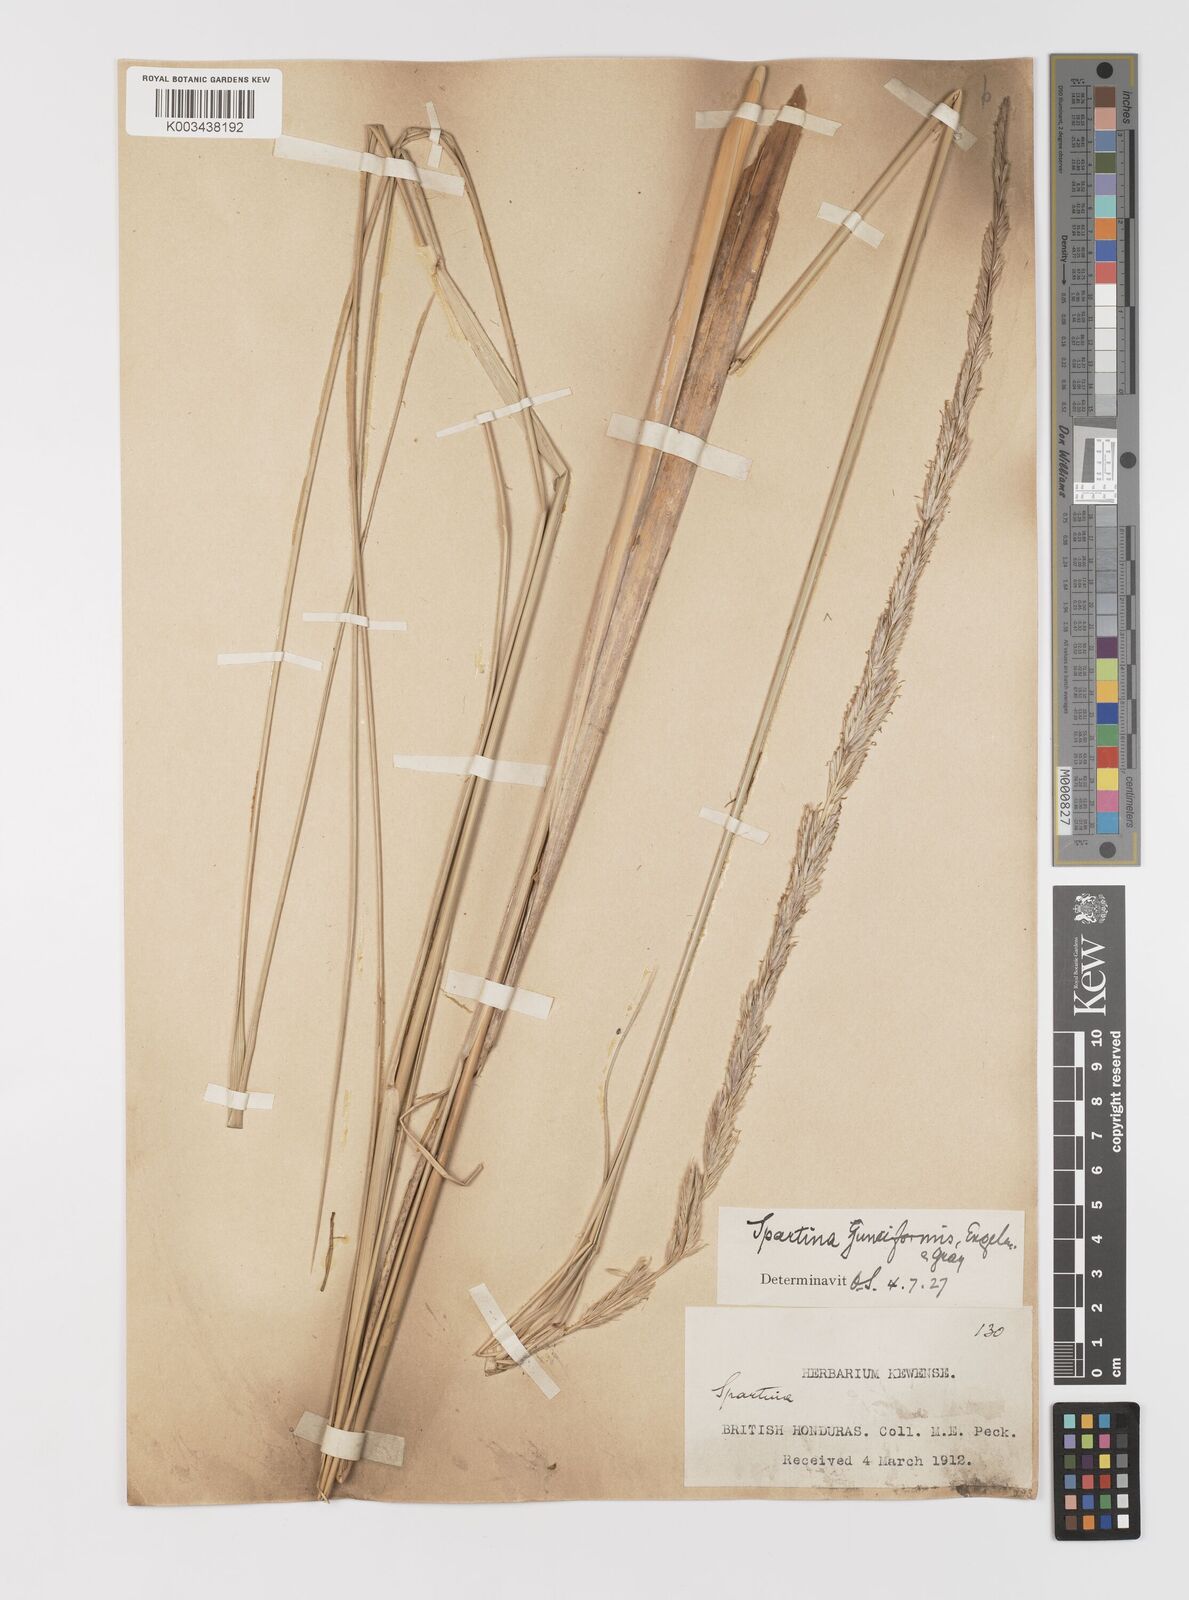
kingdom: Plantae
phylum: Tracheophyta
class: Liliopsida
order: Poales
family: Poaceae
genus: Sporobolus
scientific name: Sporobolus spartinae
